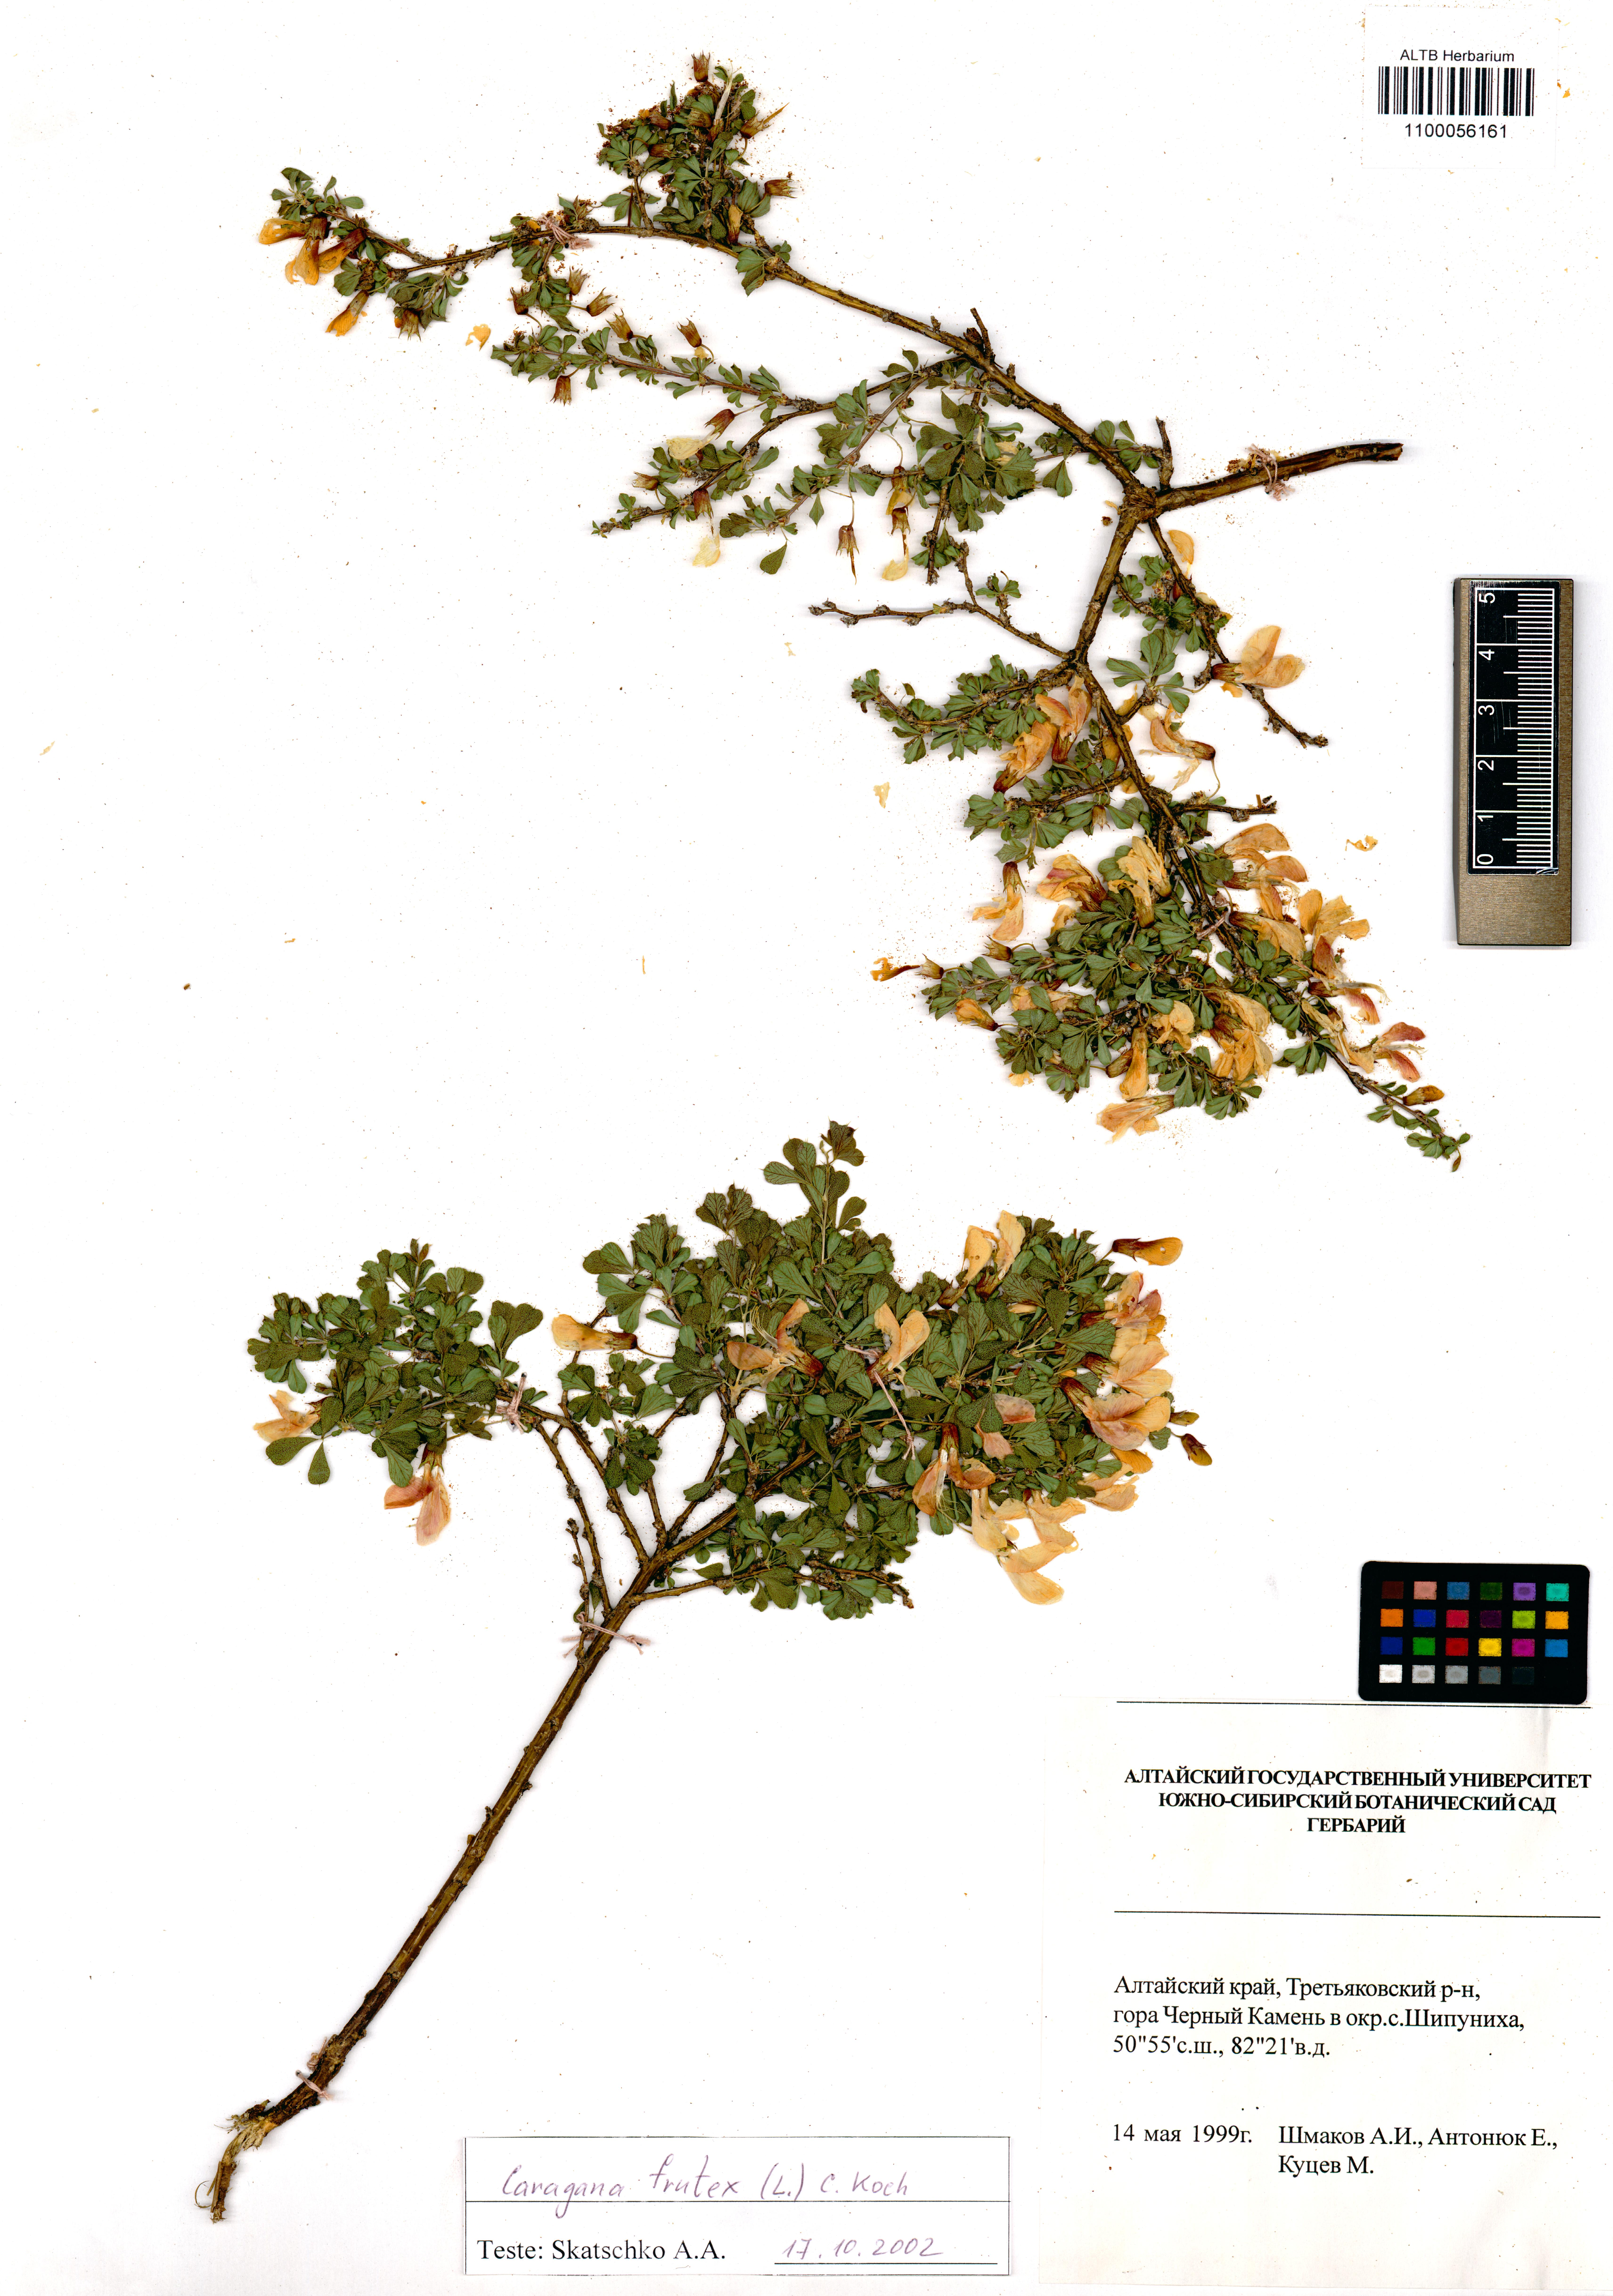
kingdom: Plantae
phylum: Tracheophyta
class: Magnoliopsida
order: Fabales
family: Fabaceae
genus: Caragana
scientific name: Caragana frutex
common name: Russian peashrub
